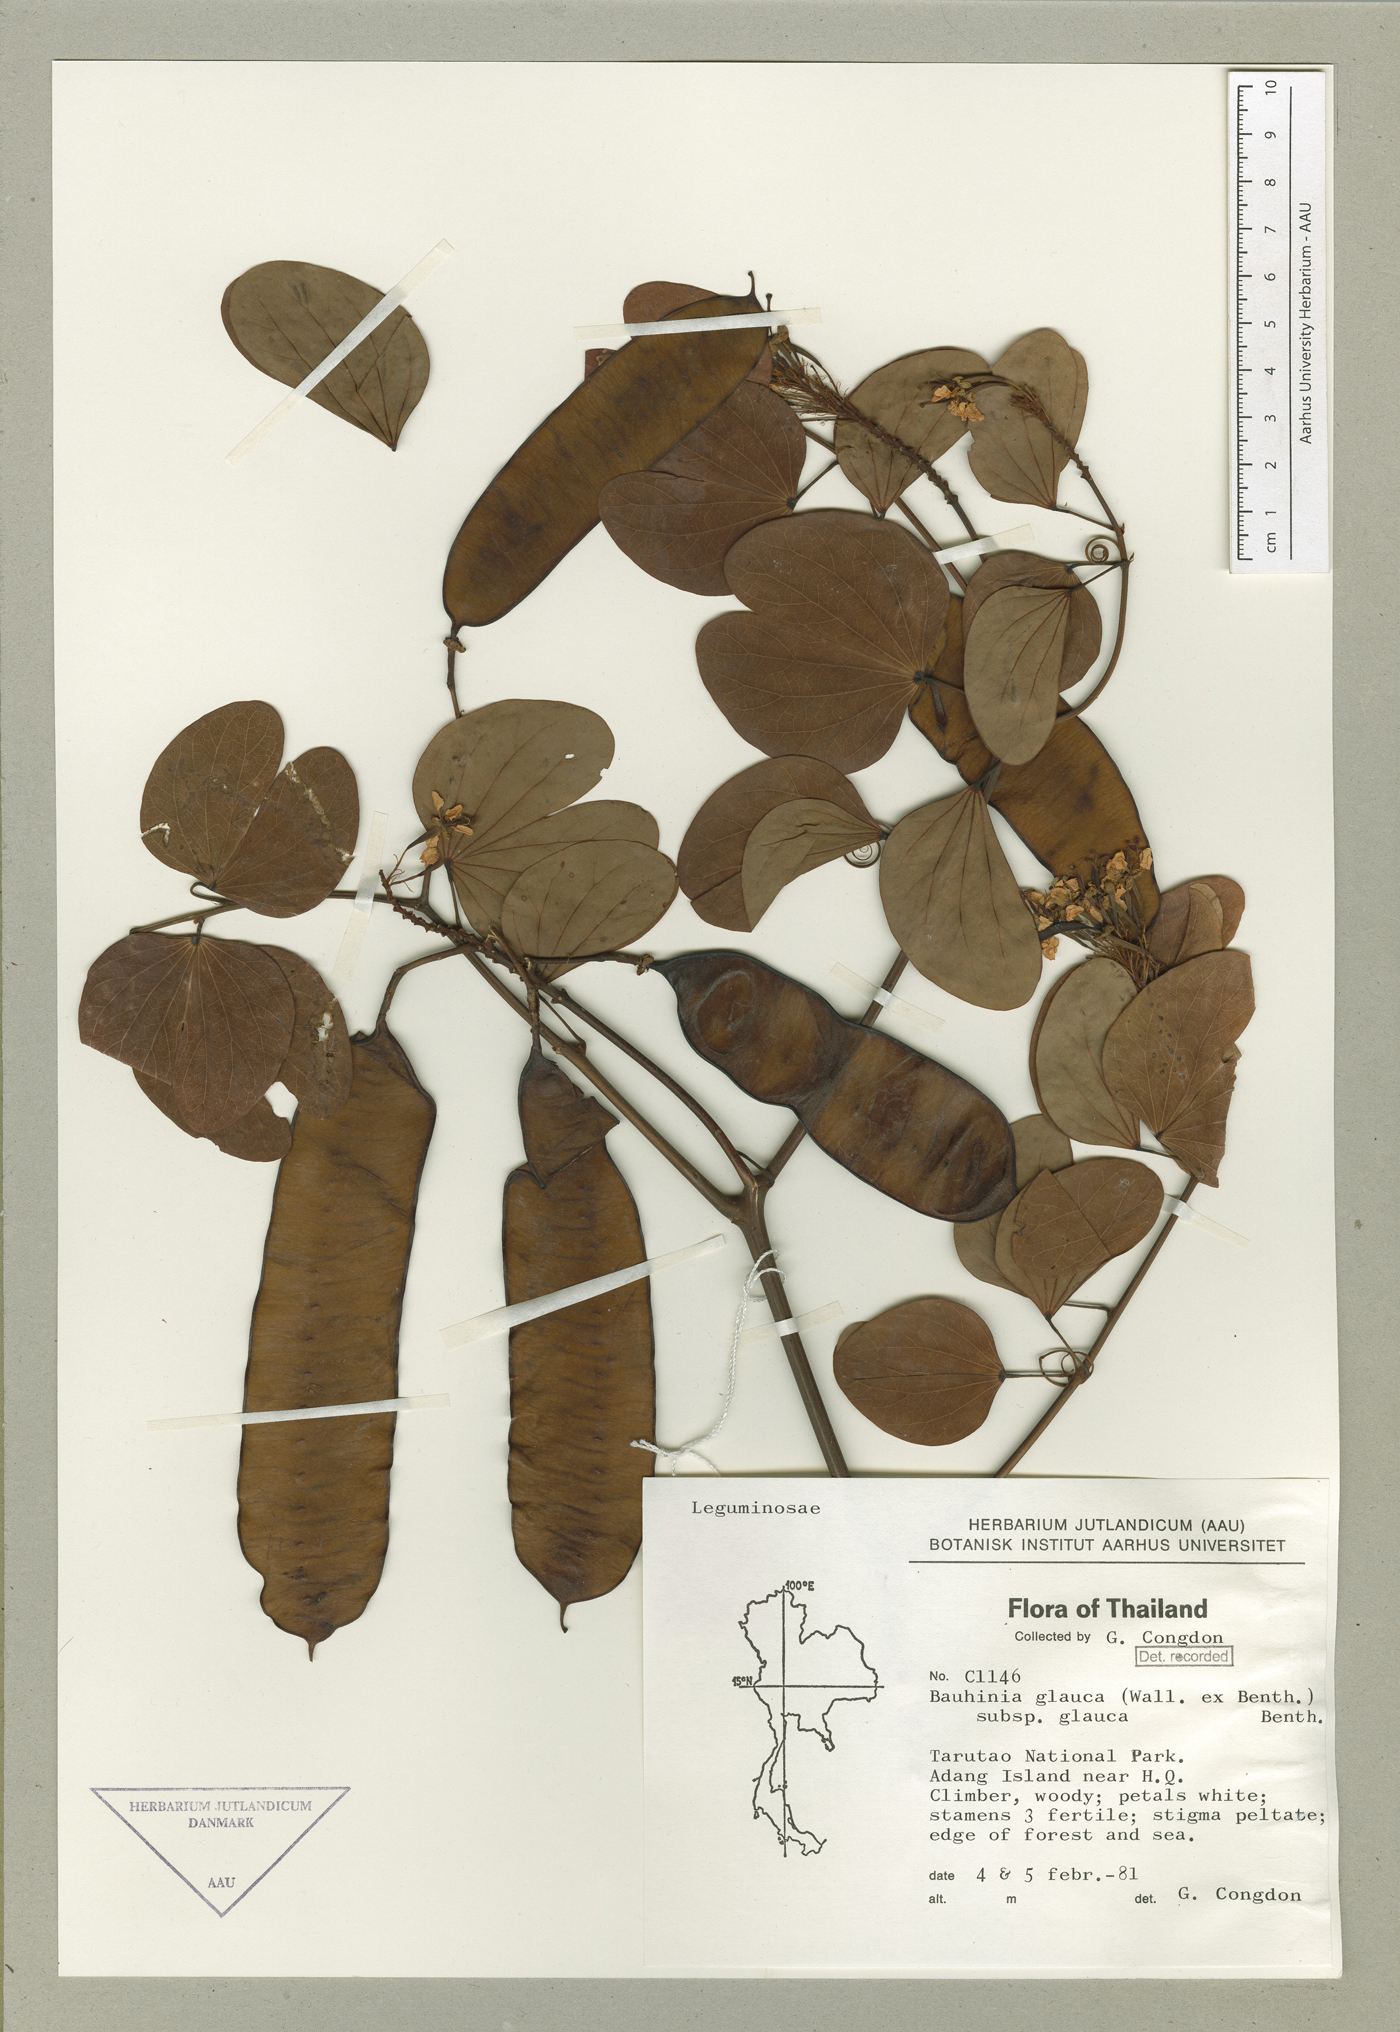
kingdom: Plantae
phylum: Tracheophyta
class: Magnoliopsida
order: Fabales
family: Fabaceae
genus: Cheniella
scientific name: Cheniella glauca
